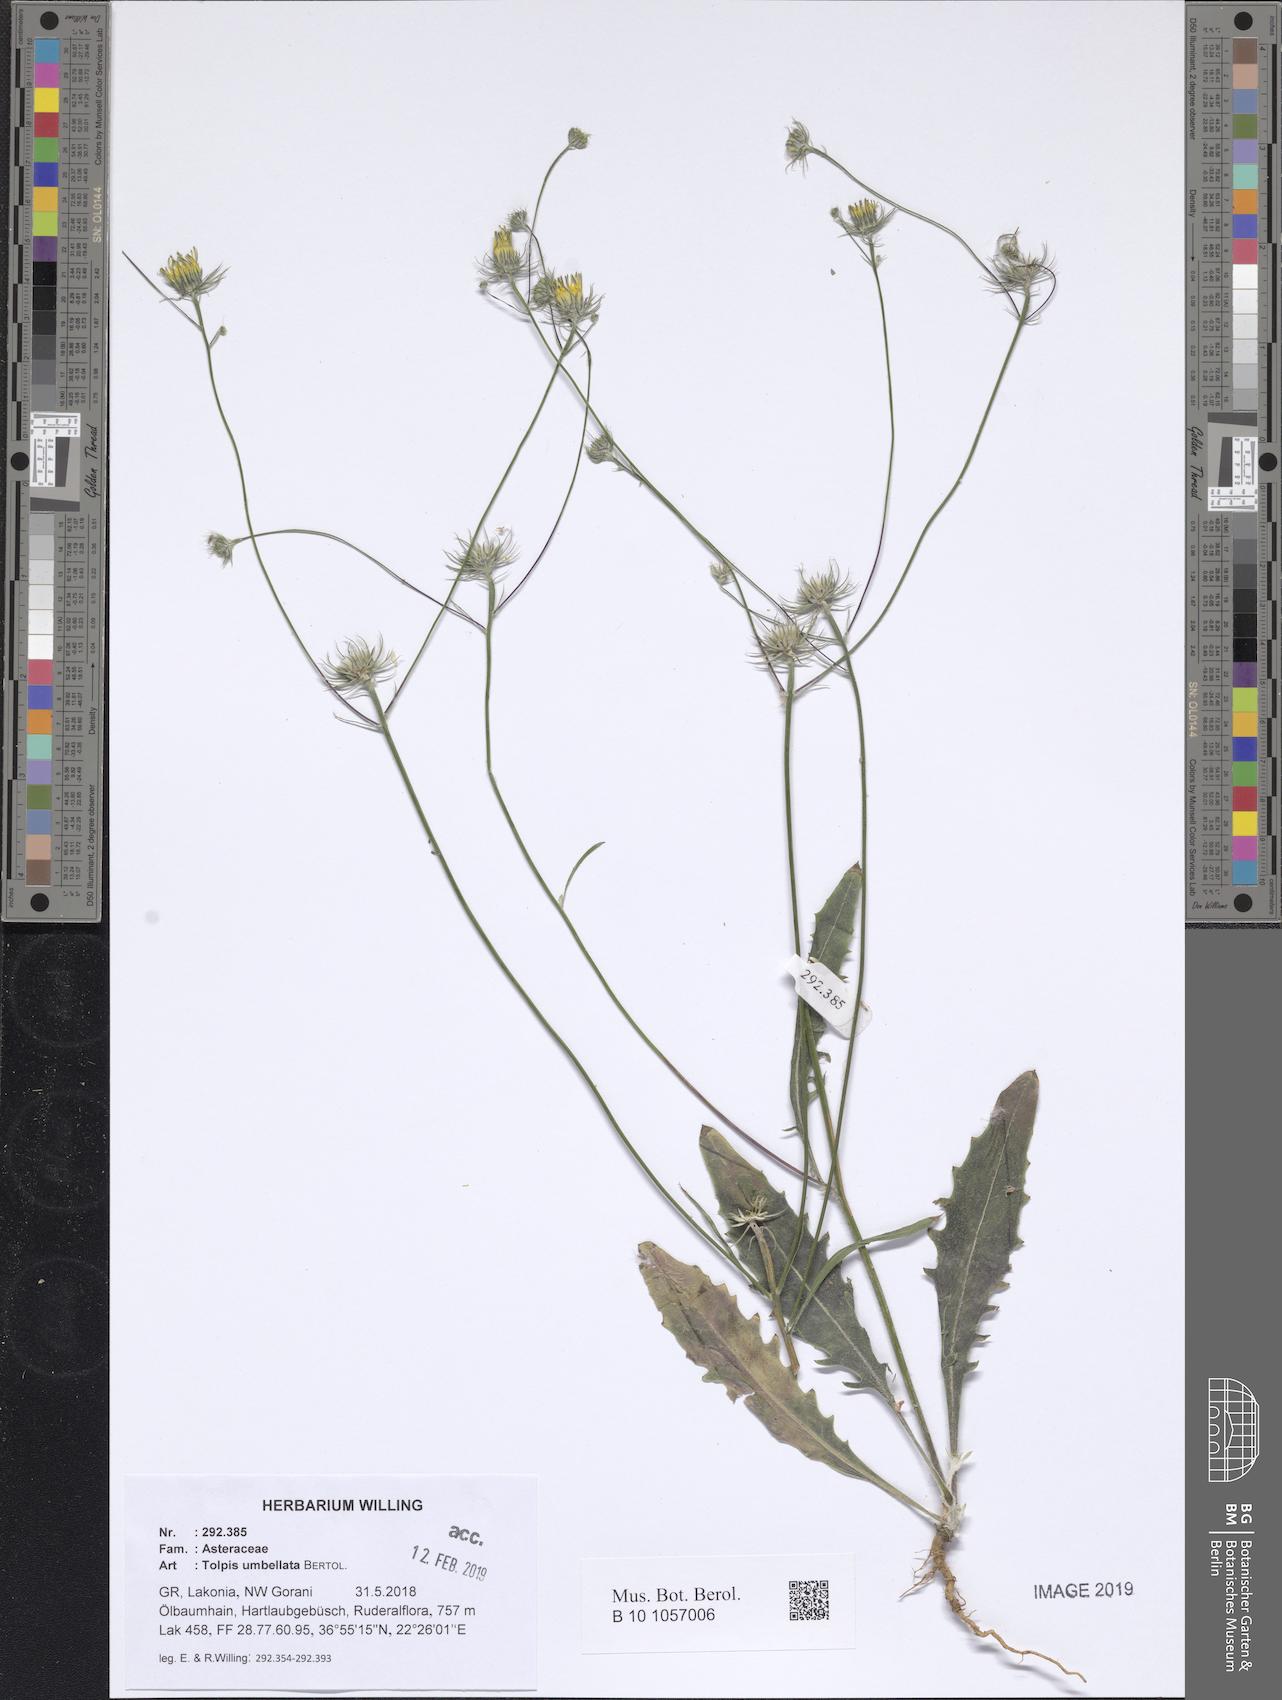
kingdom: Plantae
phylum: Tracheophyta
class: Magnoliopsida
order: Asterales
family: Asteraceae
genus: Tolpis
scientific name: Tolpis umbellata
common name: Yellow hawkweed
